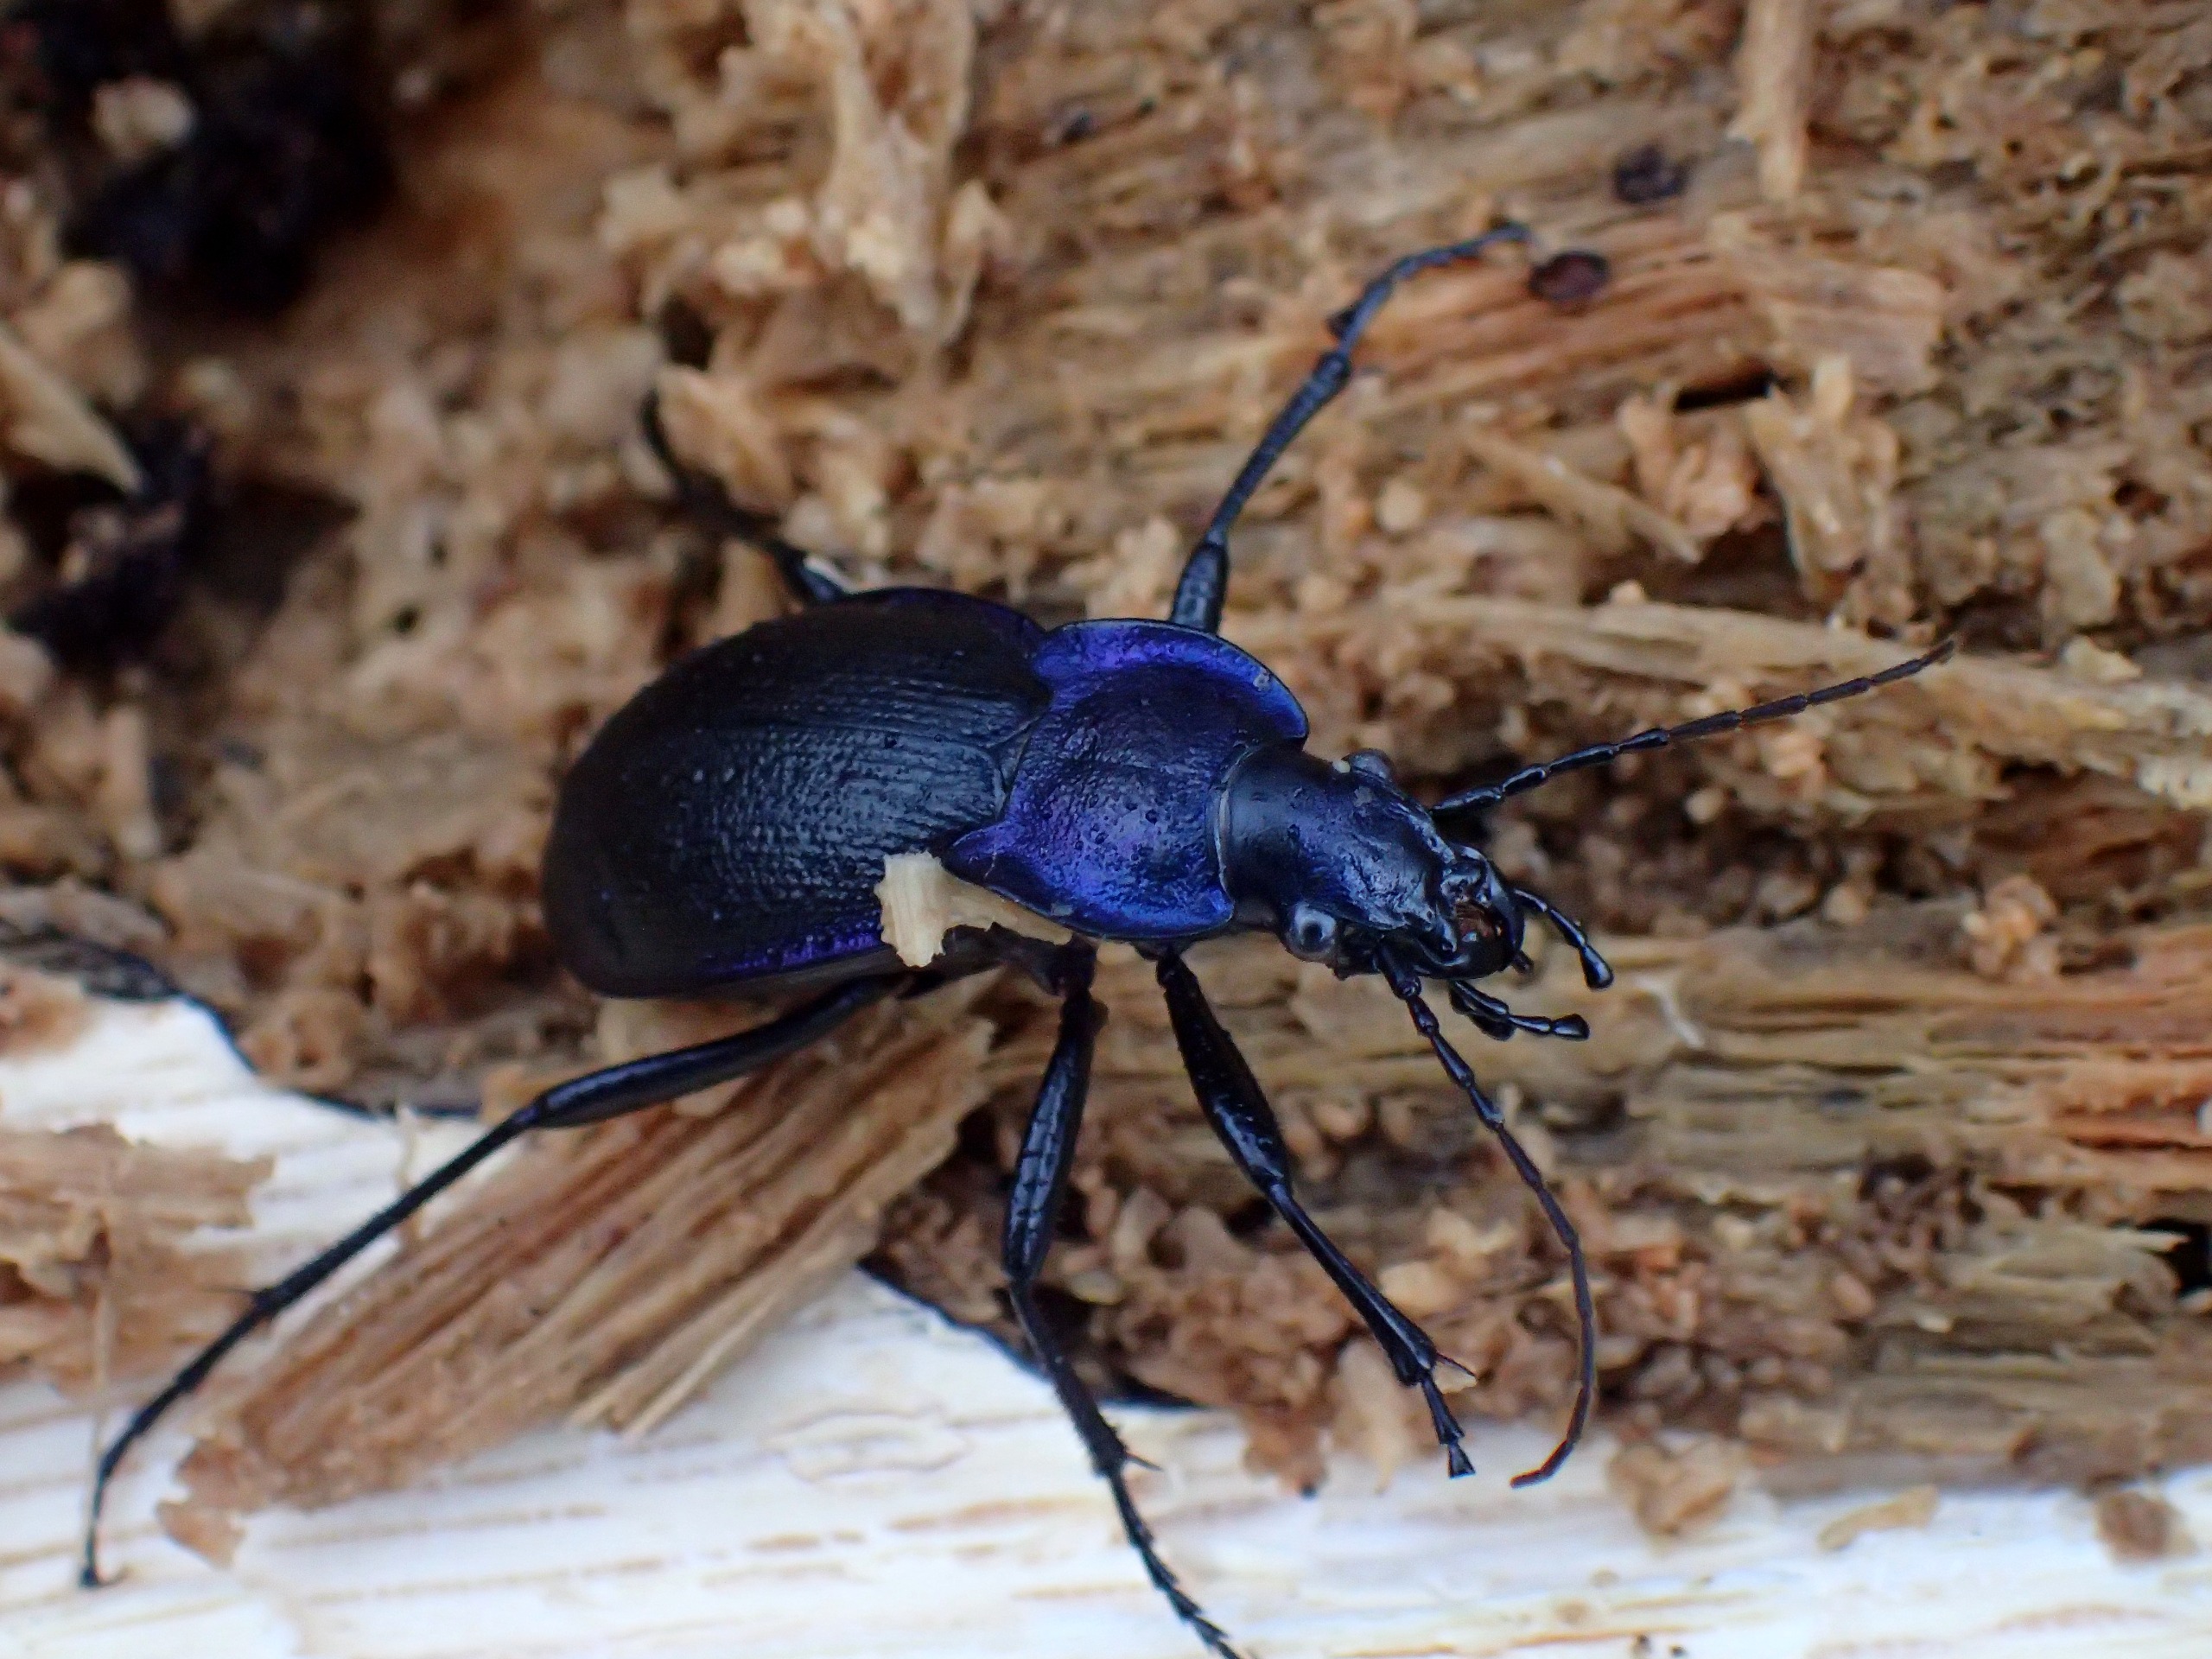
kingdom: Animalia
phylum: Arthropoda
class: Insecta
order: Coleoptera
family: Carabidae
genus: Carabus
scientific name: Carabus problematicus
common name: Jysk løber
